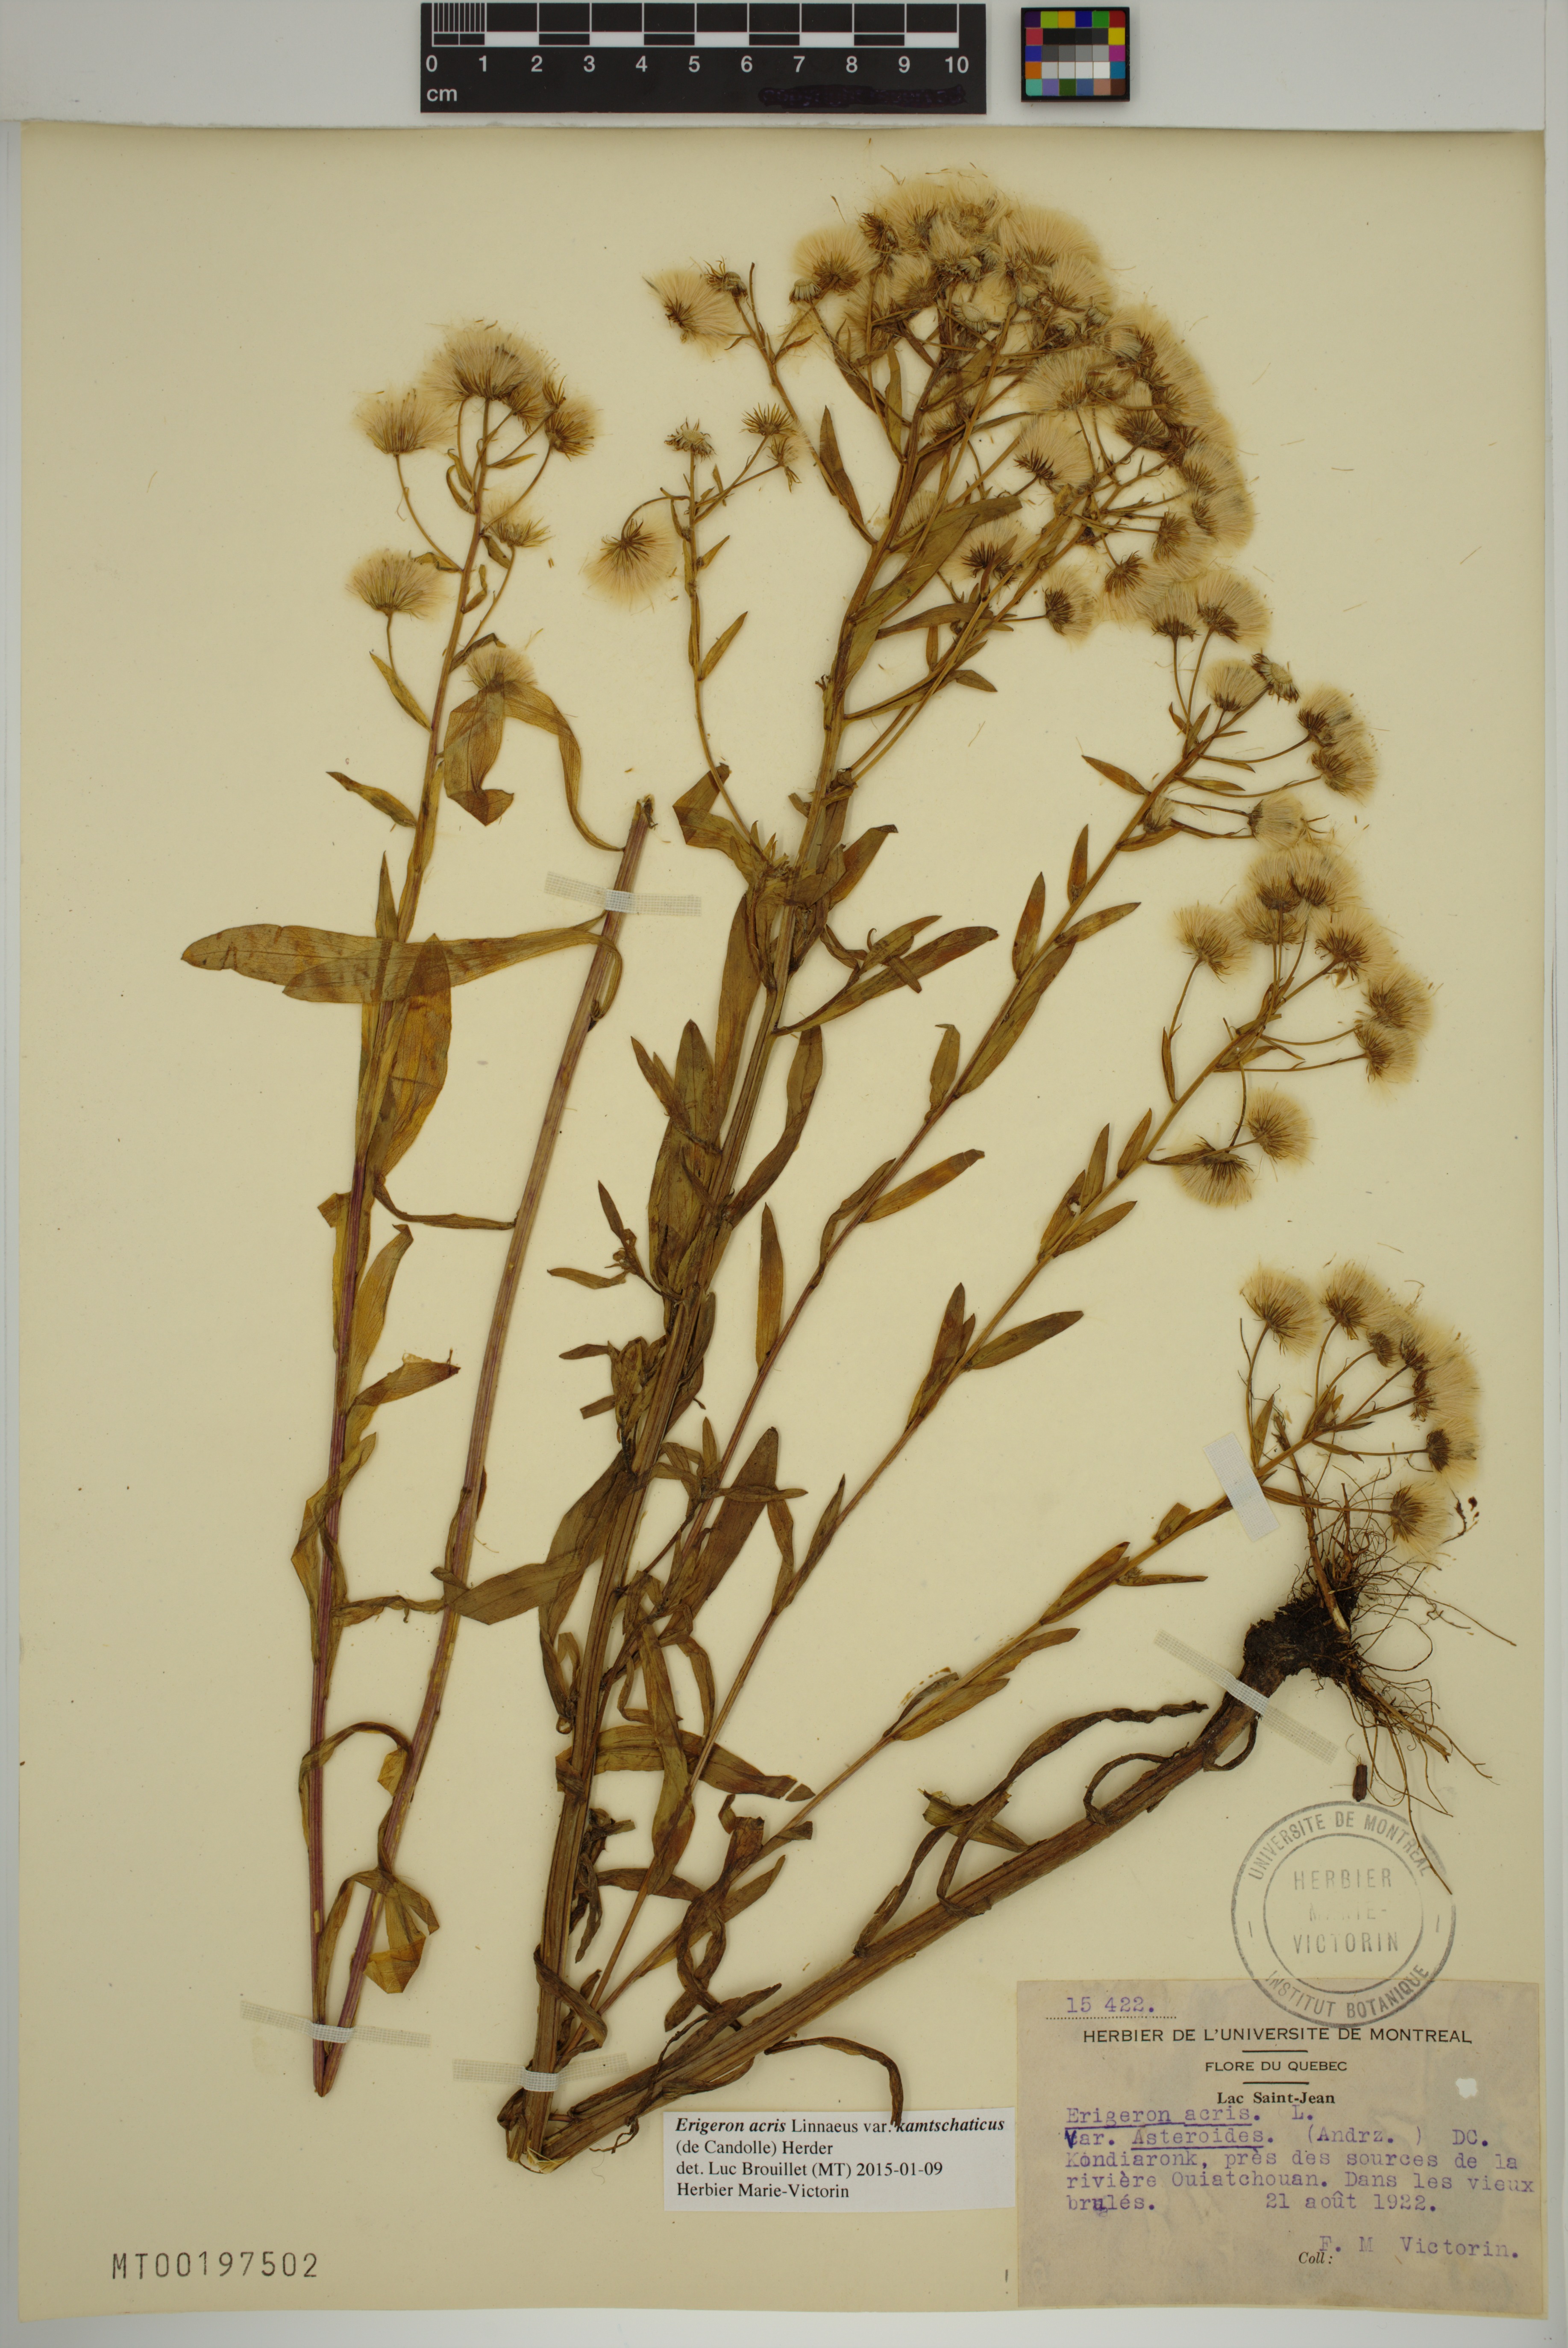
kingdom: Plantae
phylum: Tracheophyta
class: Magnoliopsida
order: Asterales
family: Asteraceae
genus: Erigeron
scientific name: Erigeron kamtschaticus
